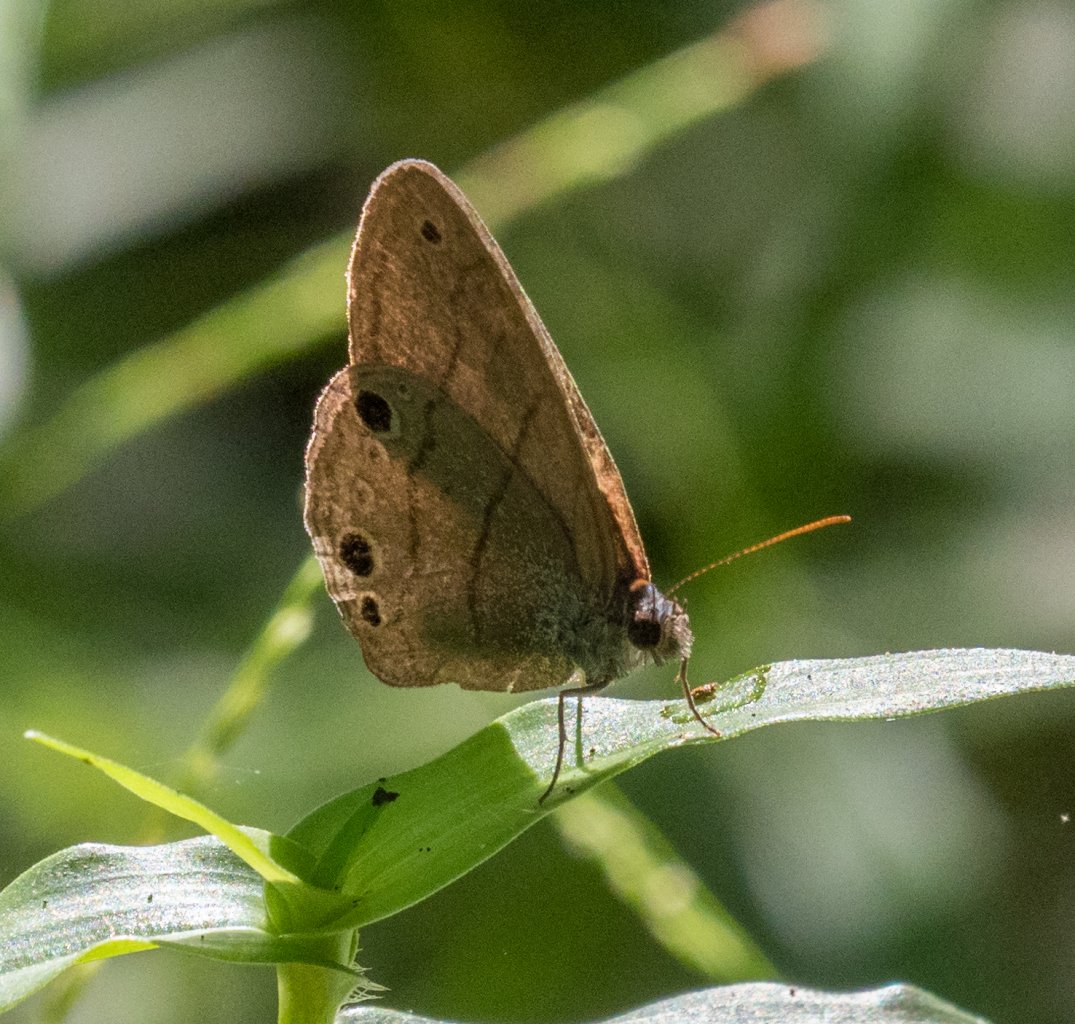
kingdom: Animalia
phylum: Arthropoda
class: Insecta
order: Lepidoptera
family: Nymphalidae
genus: Hermeuptychia
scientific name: Hermeuptychia hermes
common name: Carolina Satyr
